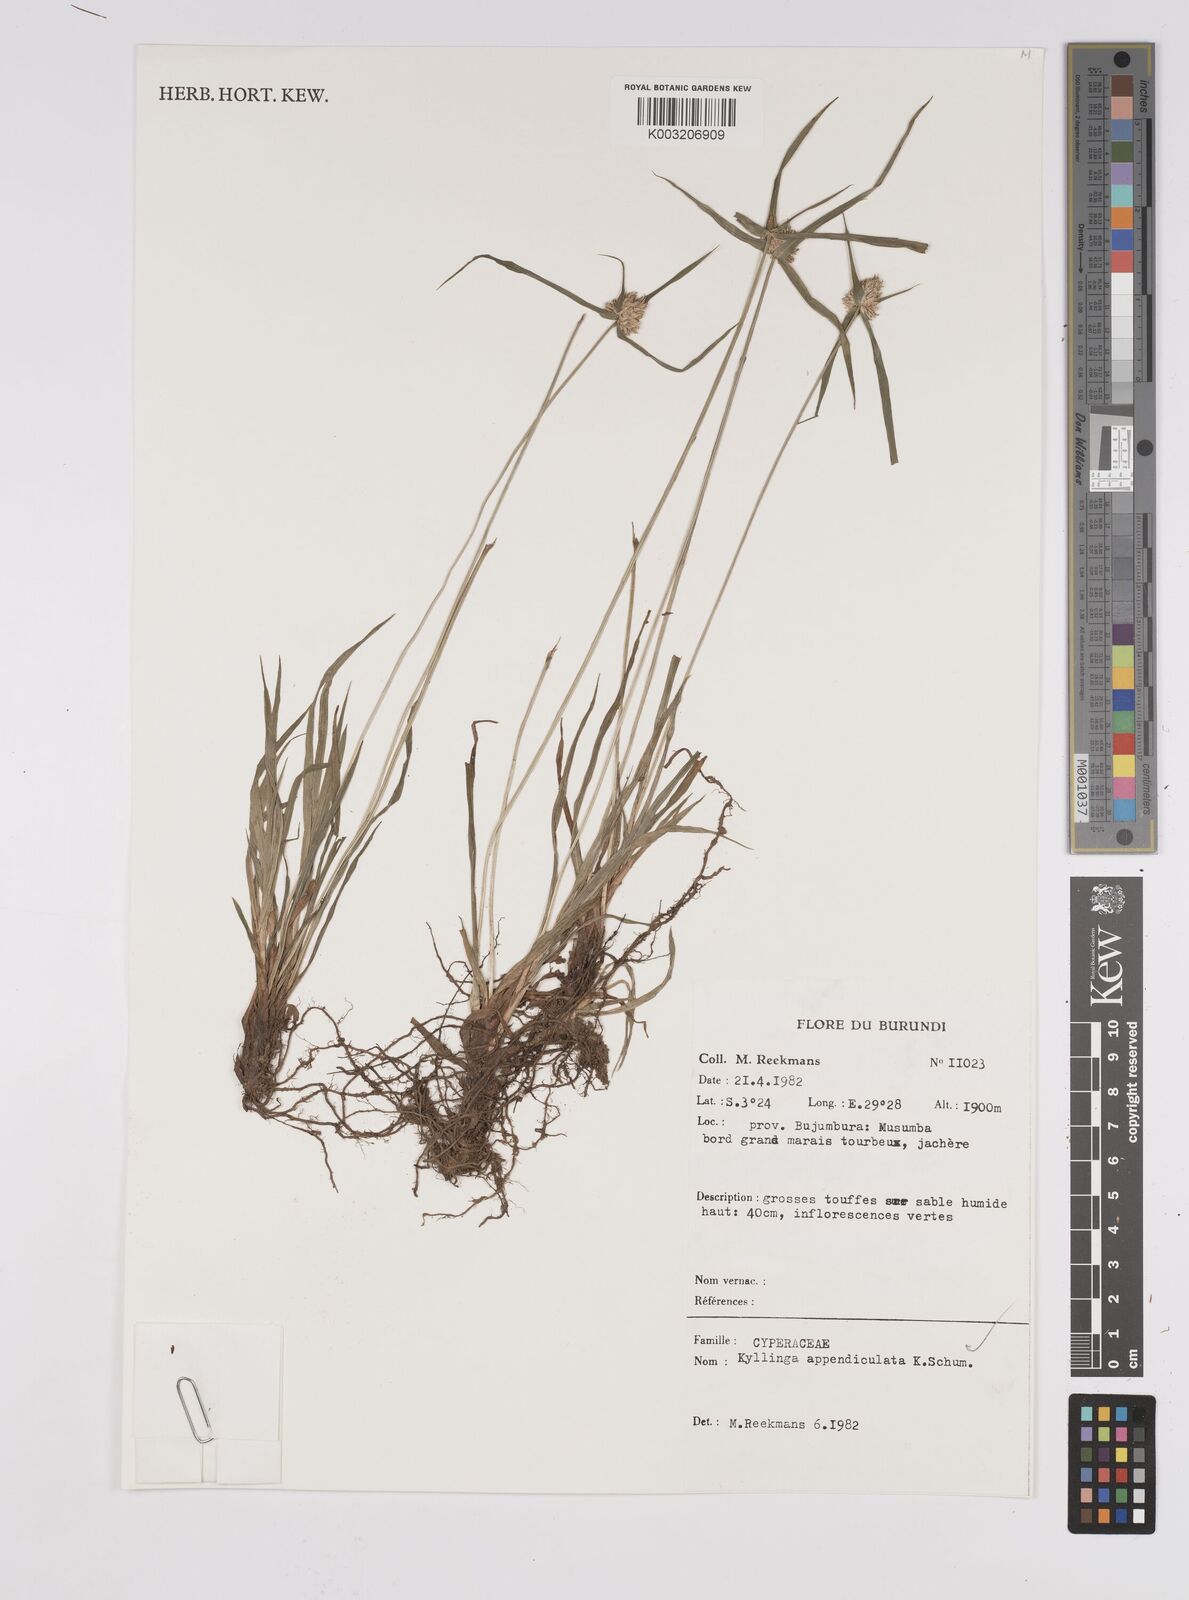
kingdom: Plantae
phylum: Tracheophyta
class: Liliopsida
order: Poales
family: Cyperaceae
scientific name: Cyperaceae
